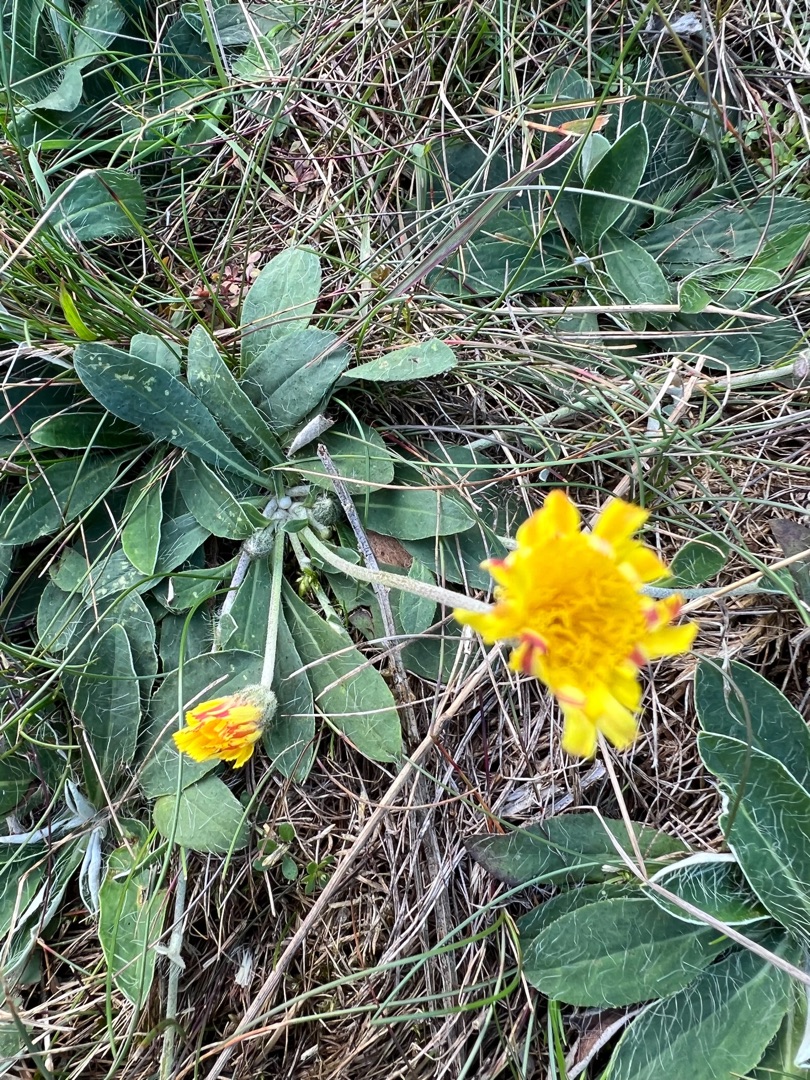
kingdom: Plantae
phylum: Tracheophyta
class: Magnoliopsida
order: Asterales
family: Asteraceae
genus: Pilosella
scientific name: Pilosella officinarum
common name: Håret høgeurt
